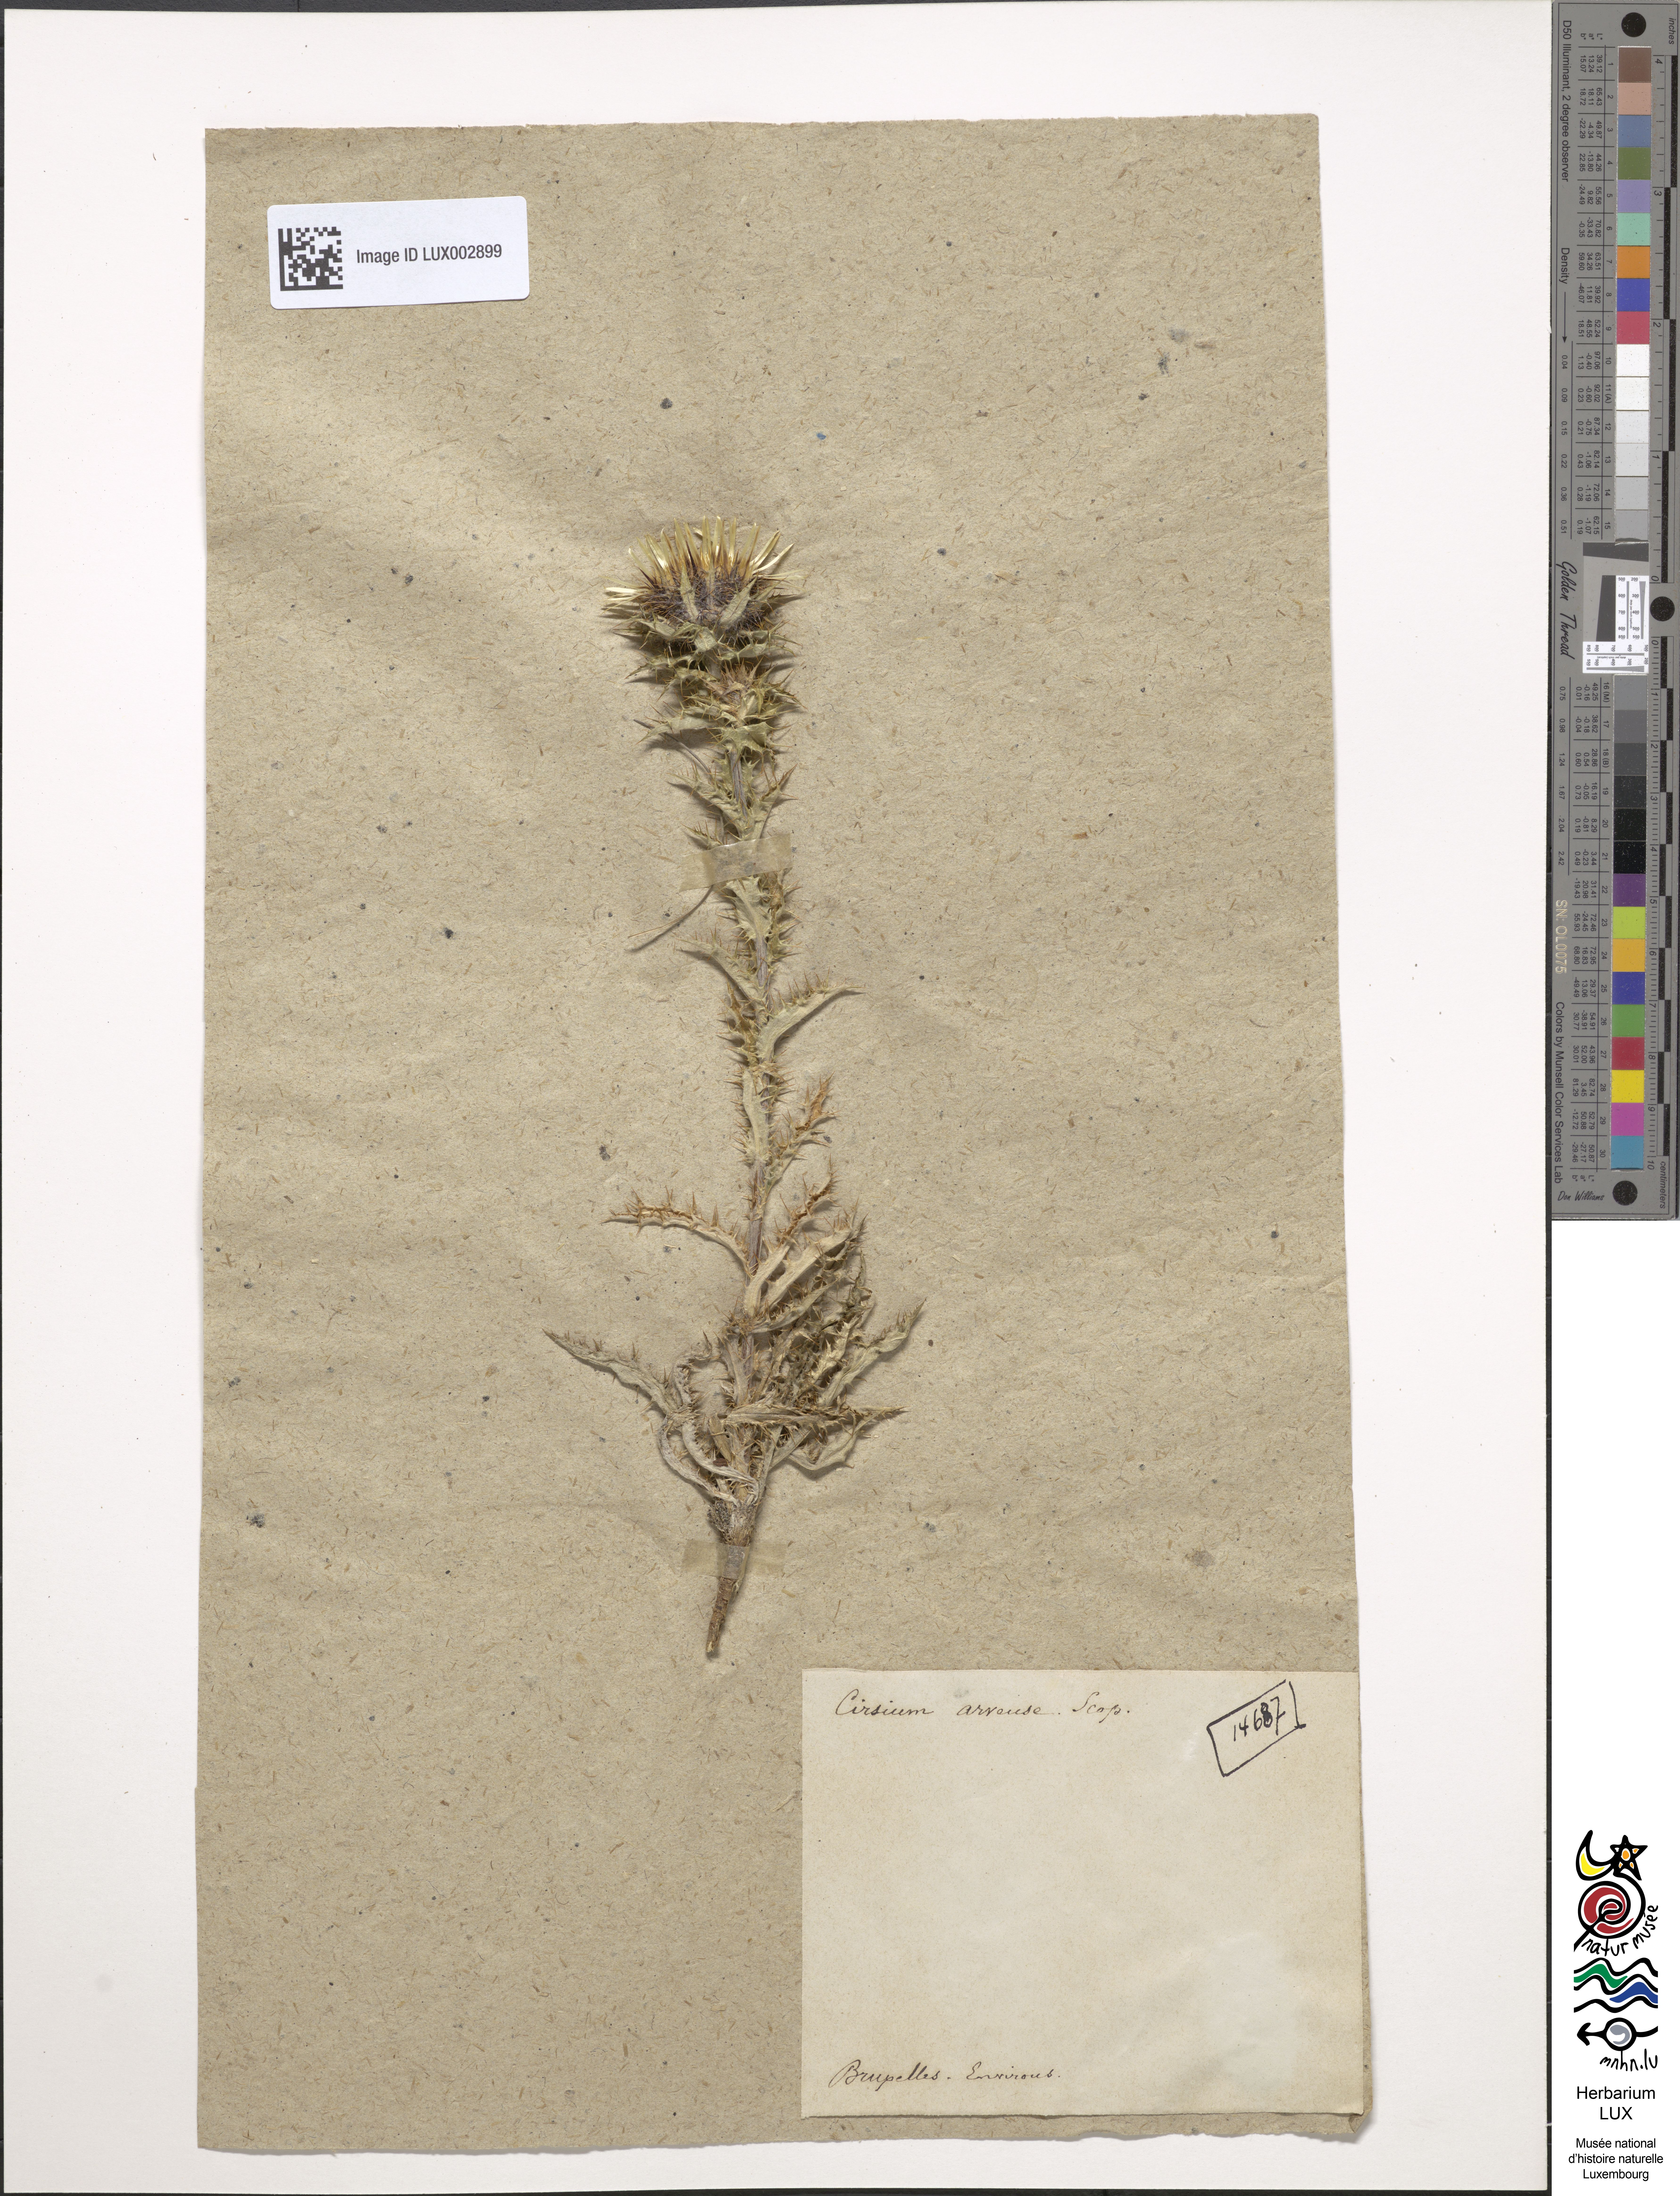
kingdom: Plantae
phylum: Tracheophyta
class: Magnoliopsida
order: Asterales
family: Asteraceae
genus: Cirsium
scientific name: Cirsium arvense
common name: Creeping thistle
